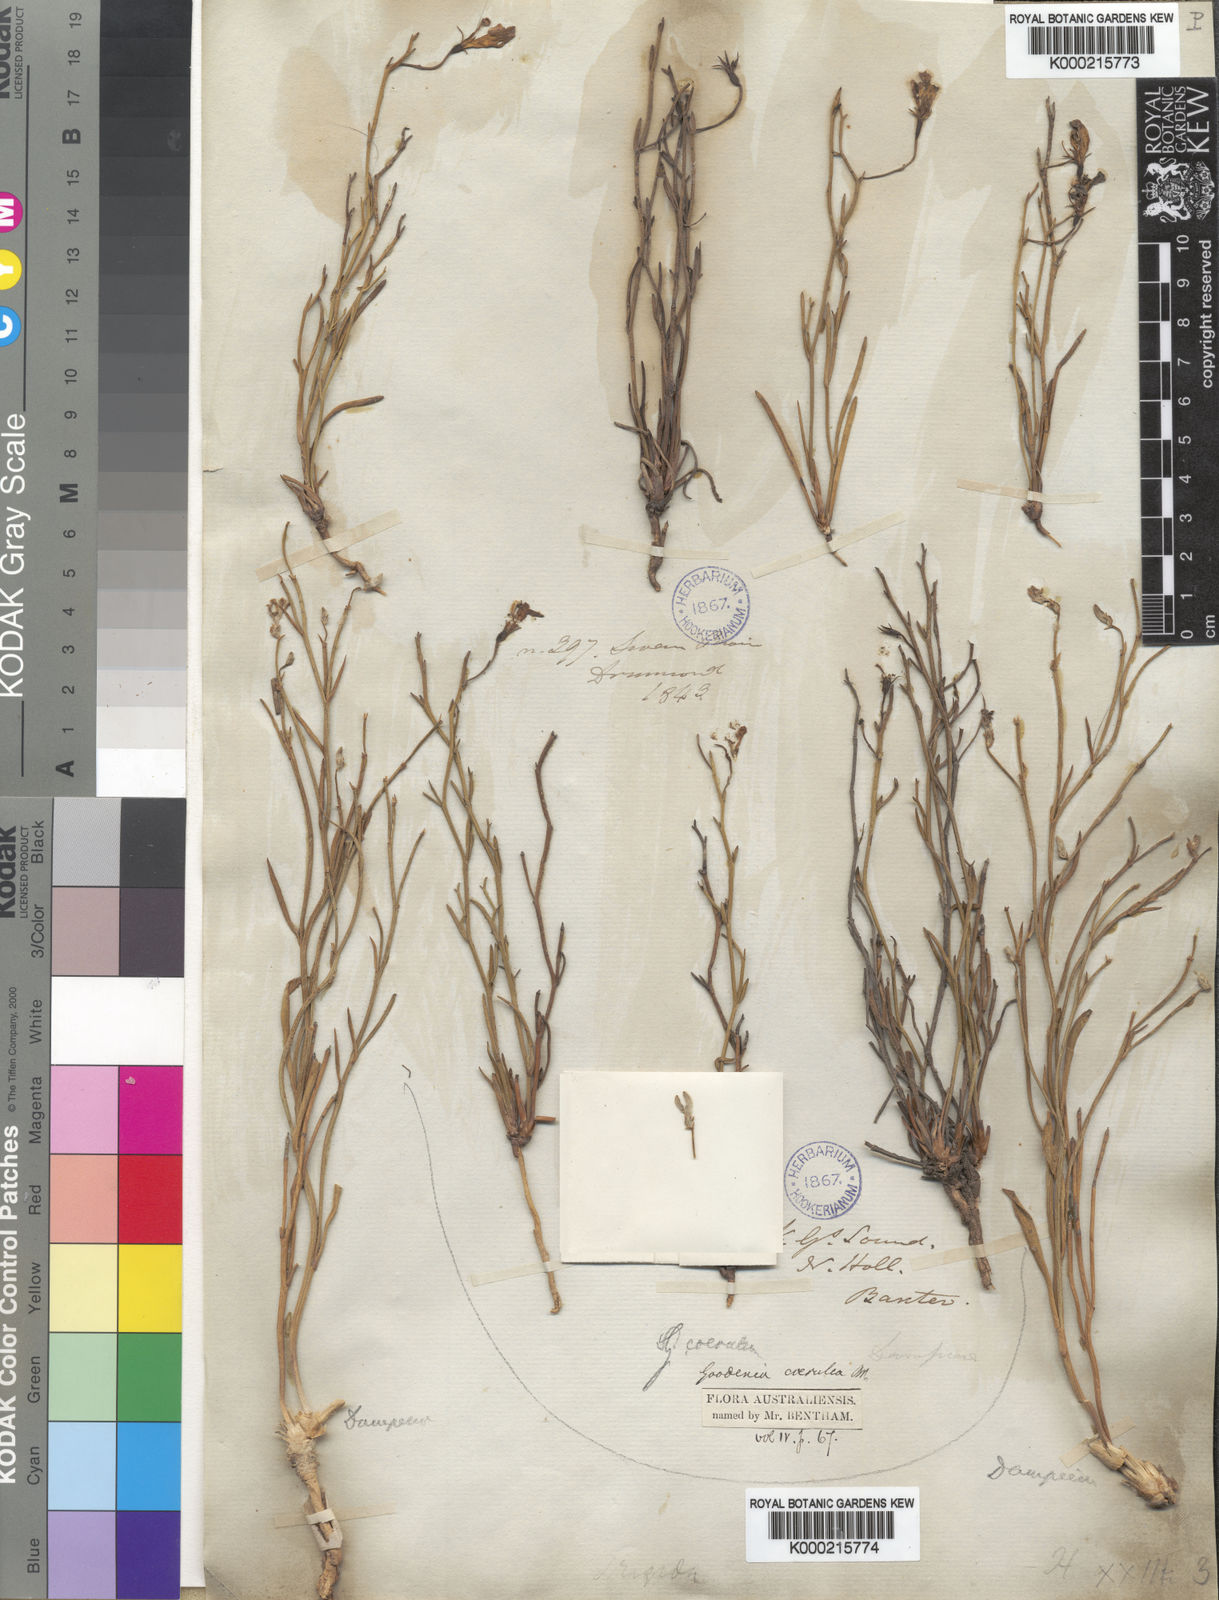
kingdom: Plantae
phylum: Tracheophyta
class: Magnoliopsida
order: Asterales
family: Goodeniaceae
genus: Goodenia
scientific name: Goodenia caerulea
